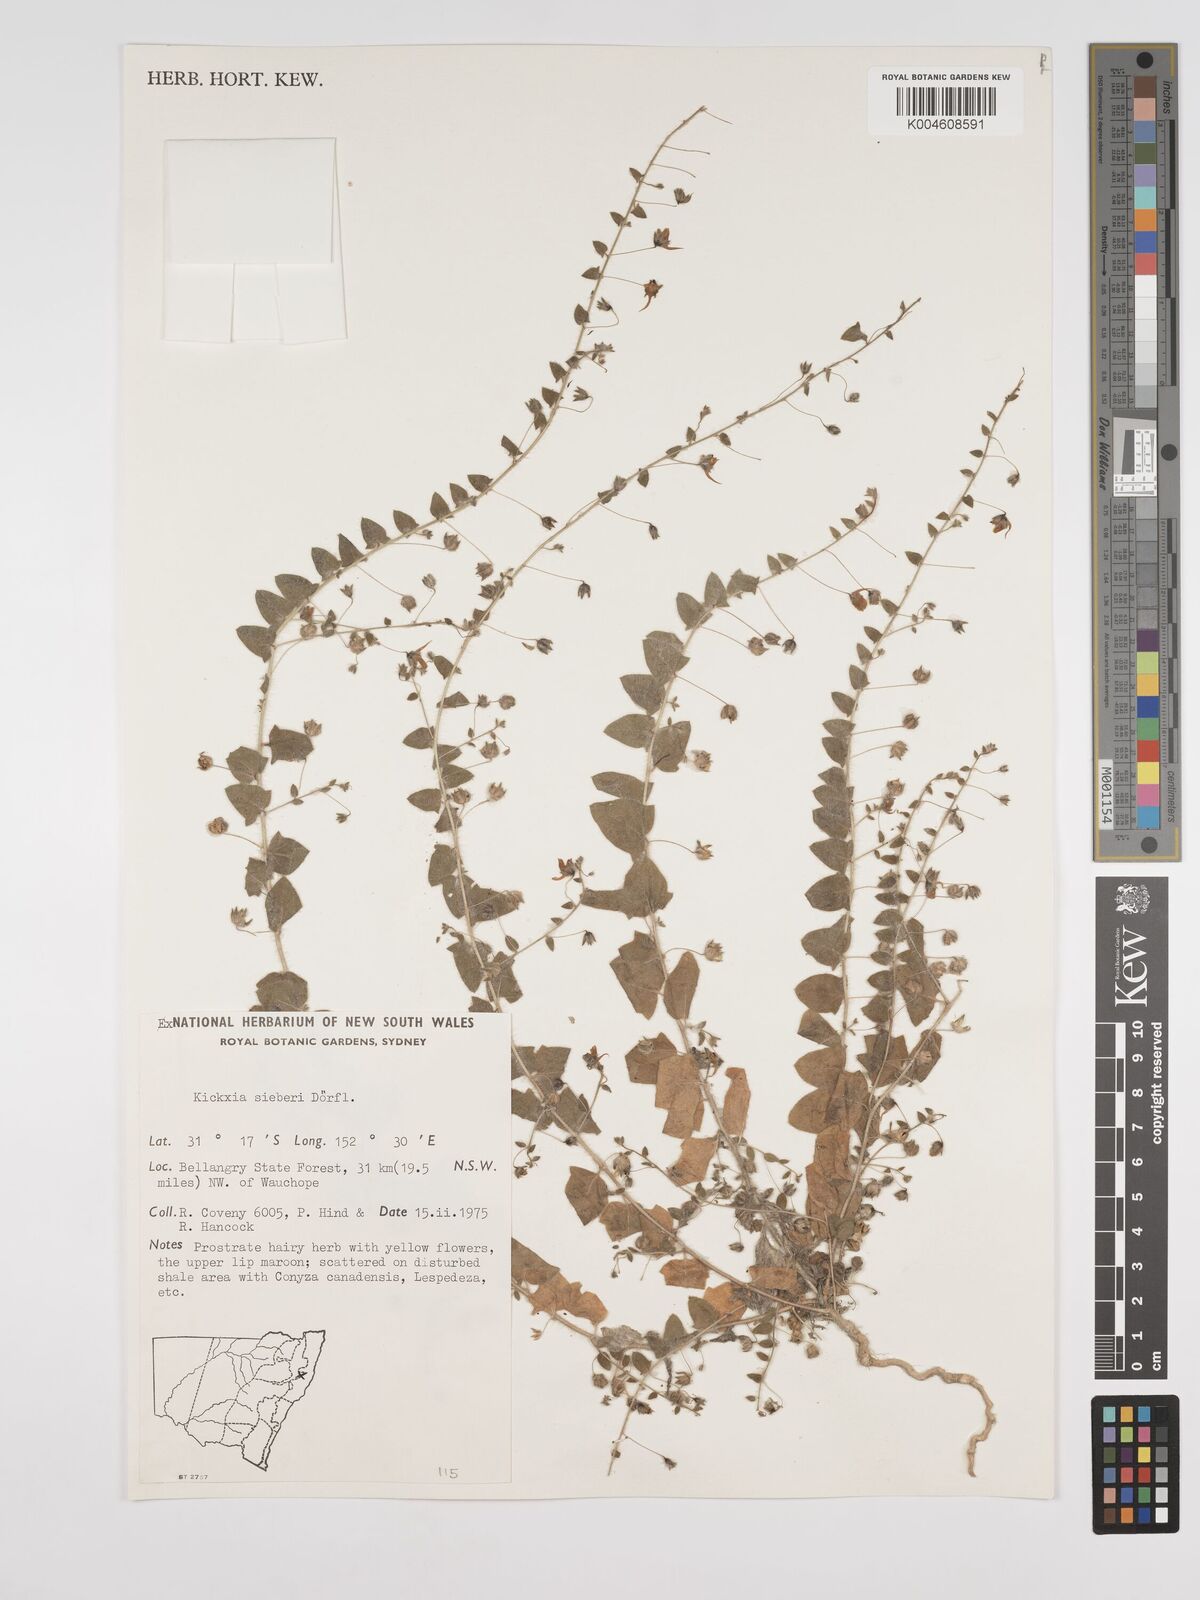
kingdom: Plantae
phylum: Tracheophyta
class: Magnoliopsida
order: Lamiales
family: Plantaginaceae
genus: Kickxia
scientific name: Kickxia elatine
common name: Sharp-leaved fluellen
